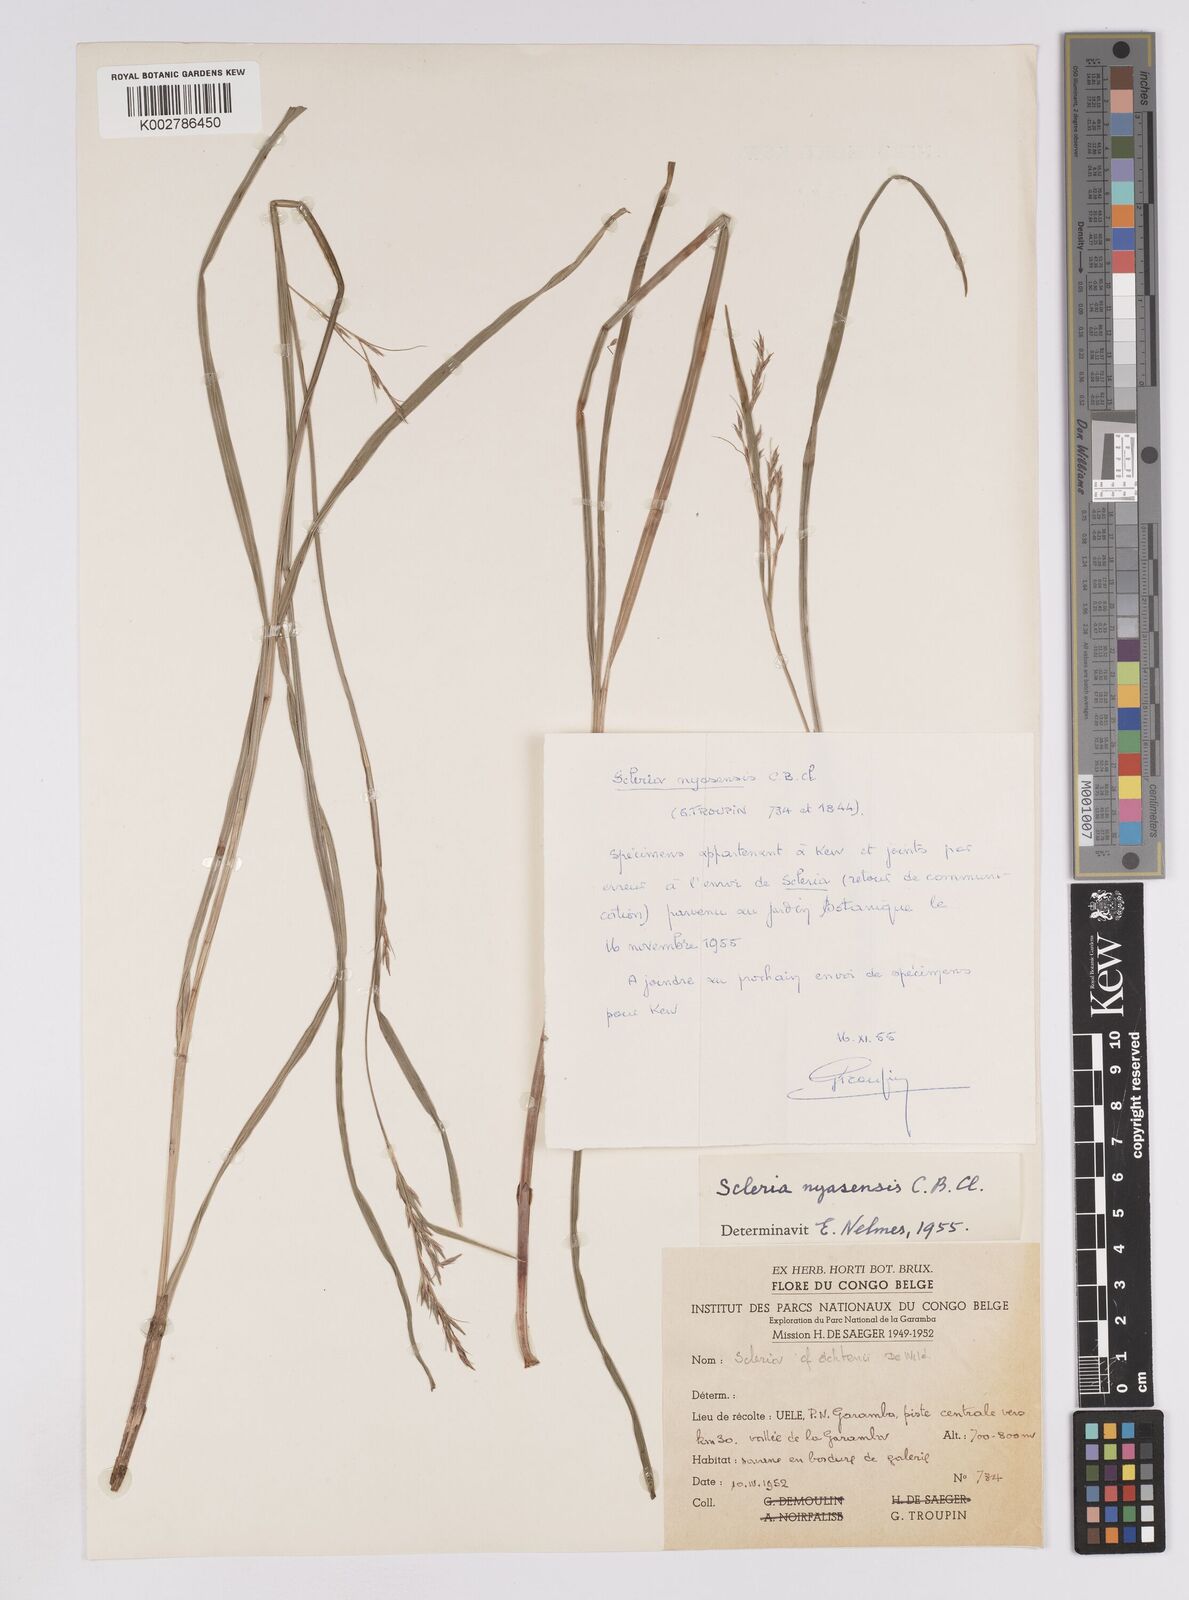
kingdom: Plantae
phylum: Tracheophyta
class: Liliopsida
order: Poales
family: Cyperaceae
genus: Scleria
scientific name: Scleria achtenii
